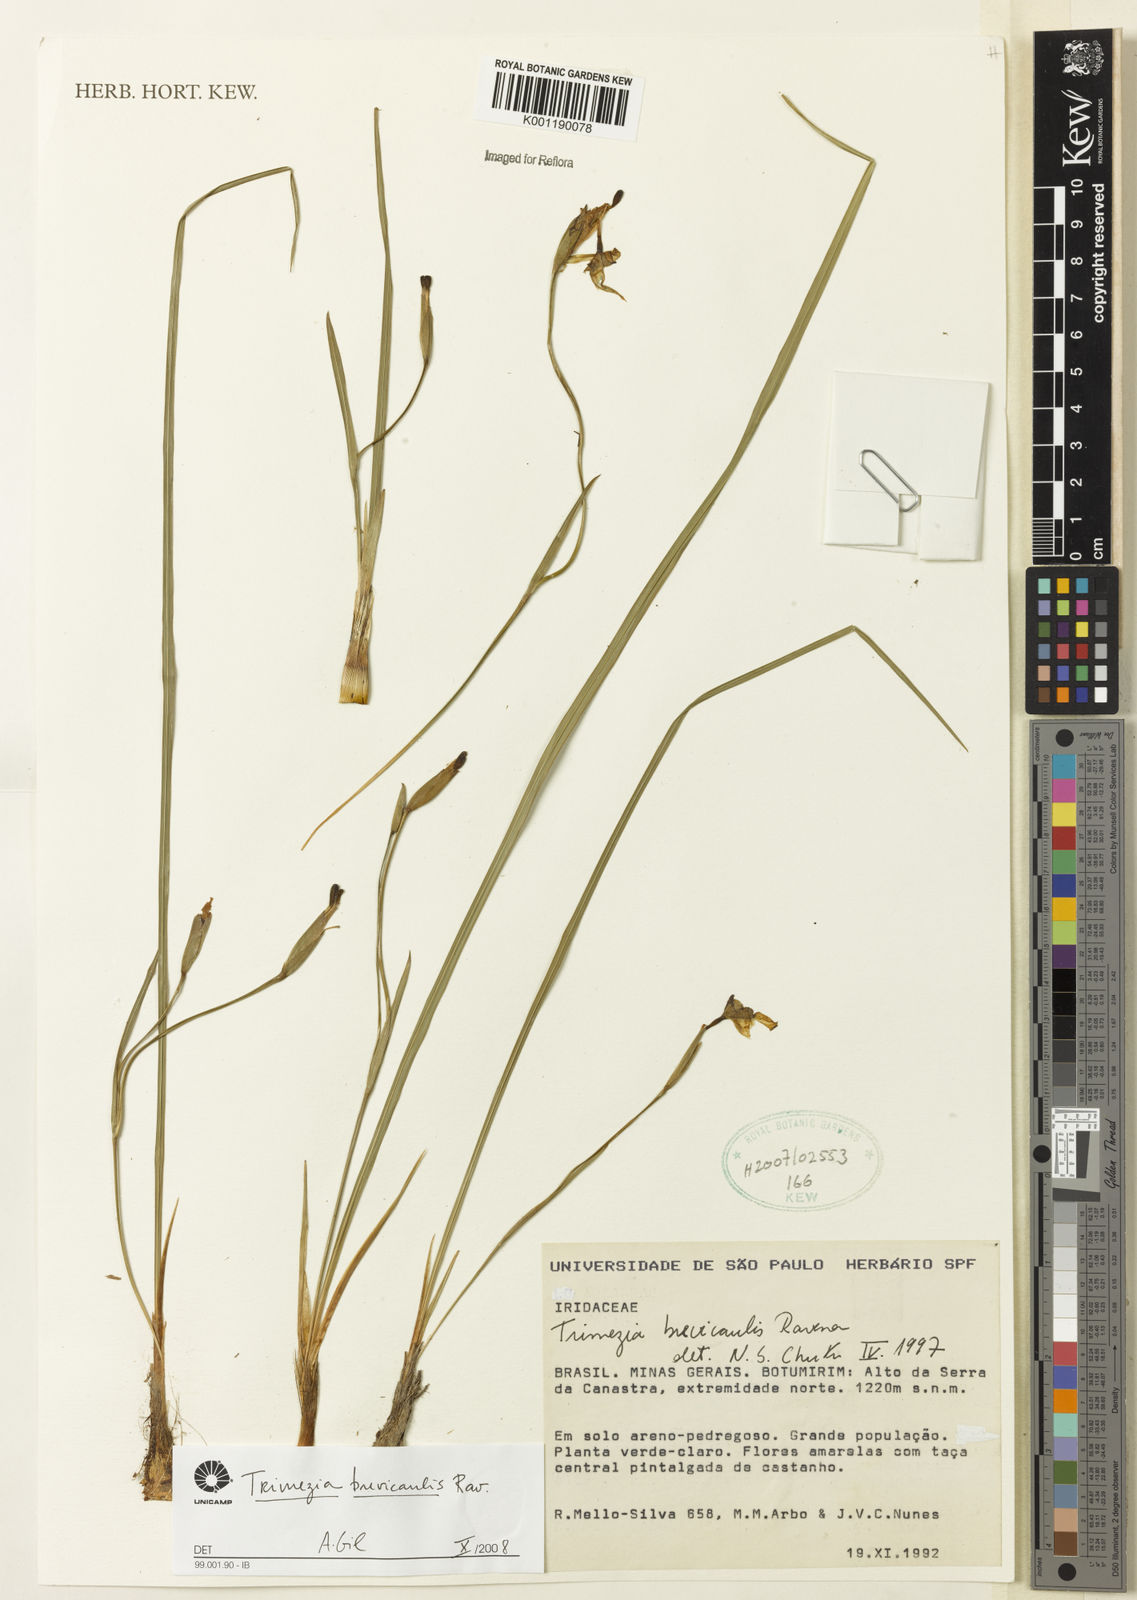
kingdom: Plantae
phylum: Tracheophyta
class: Liliopsida
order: Asparagales
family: Iridaceae
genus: Trimezia
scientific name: Trimezia brevicaulis
